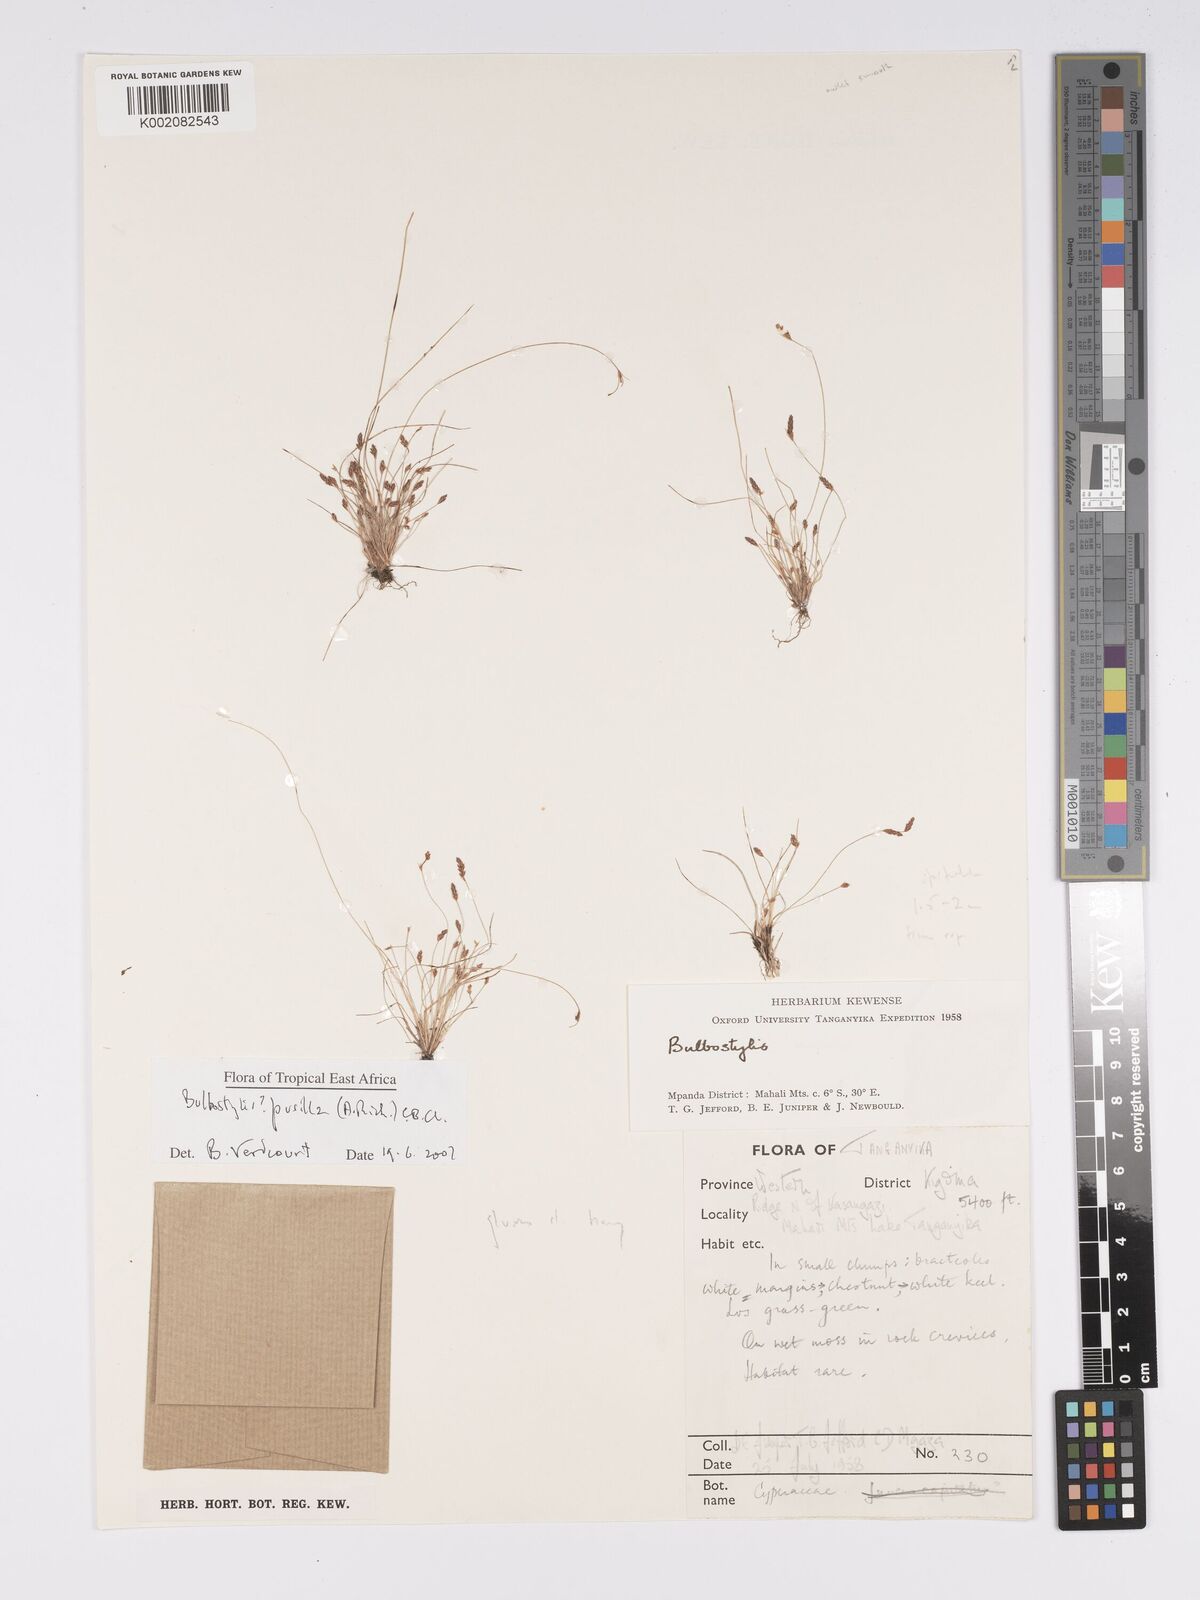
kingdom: Plantae
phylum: Tracheophyta
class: Liliopsida
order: Poales
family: Cyperaceae
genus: Bulbostylis
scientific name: Bulbostylis pusilla
